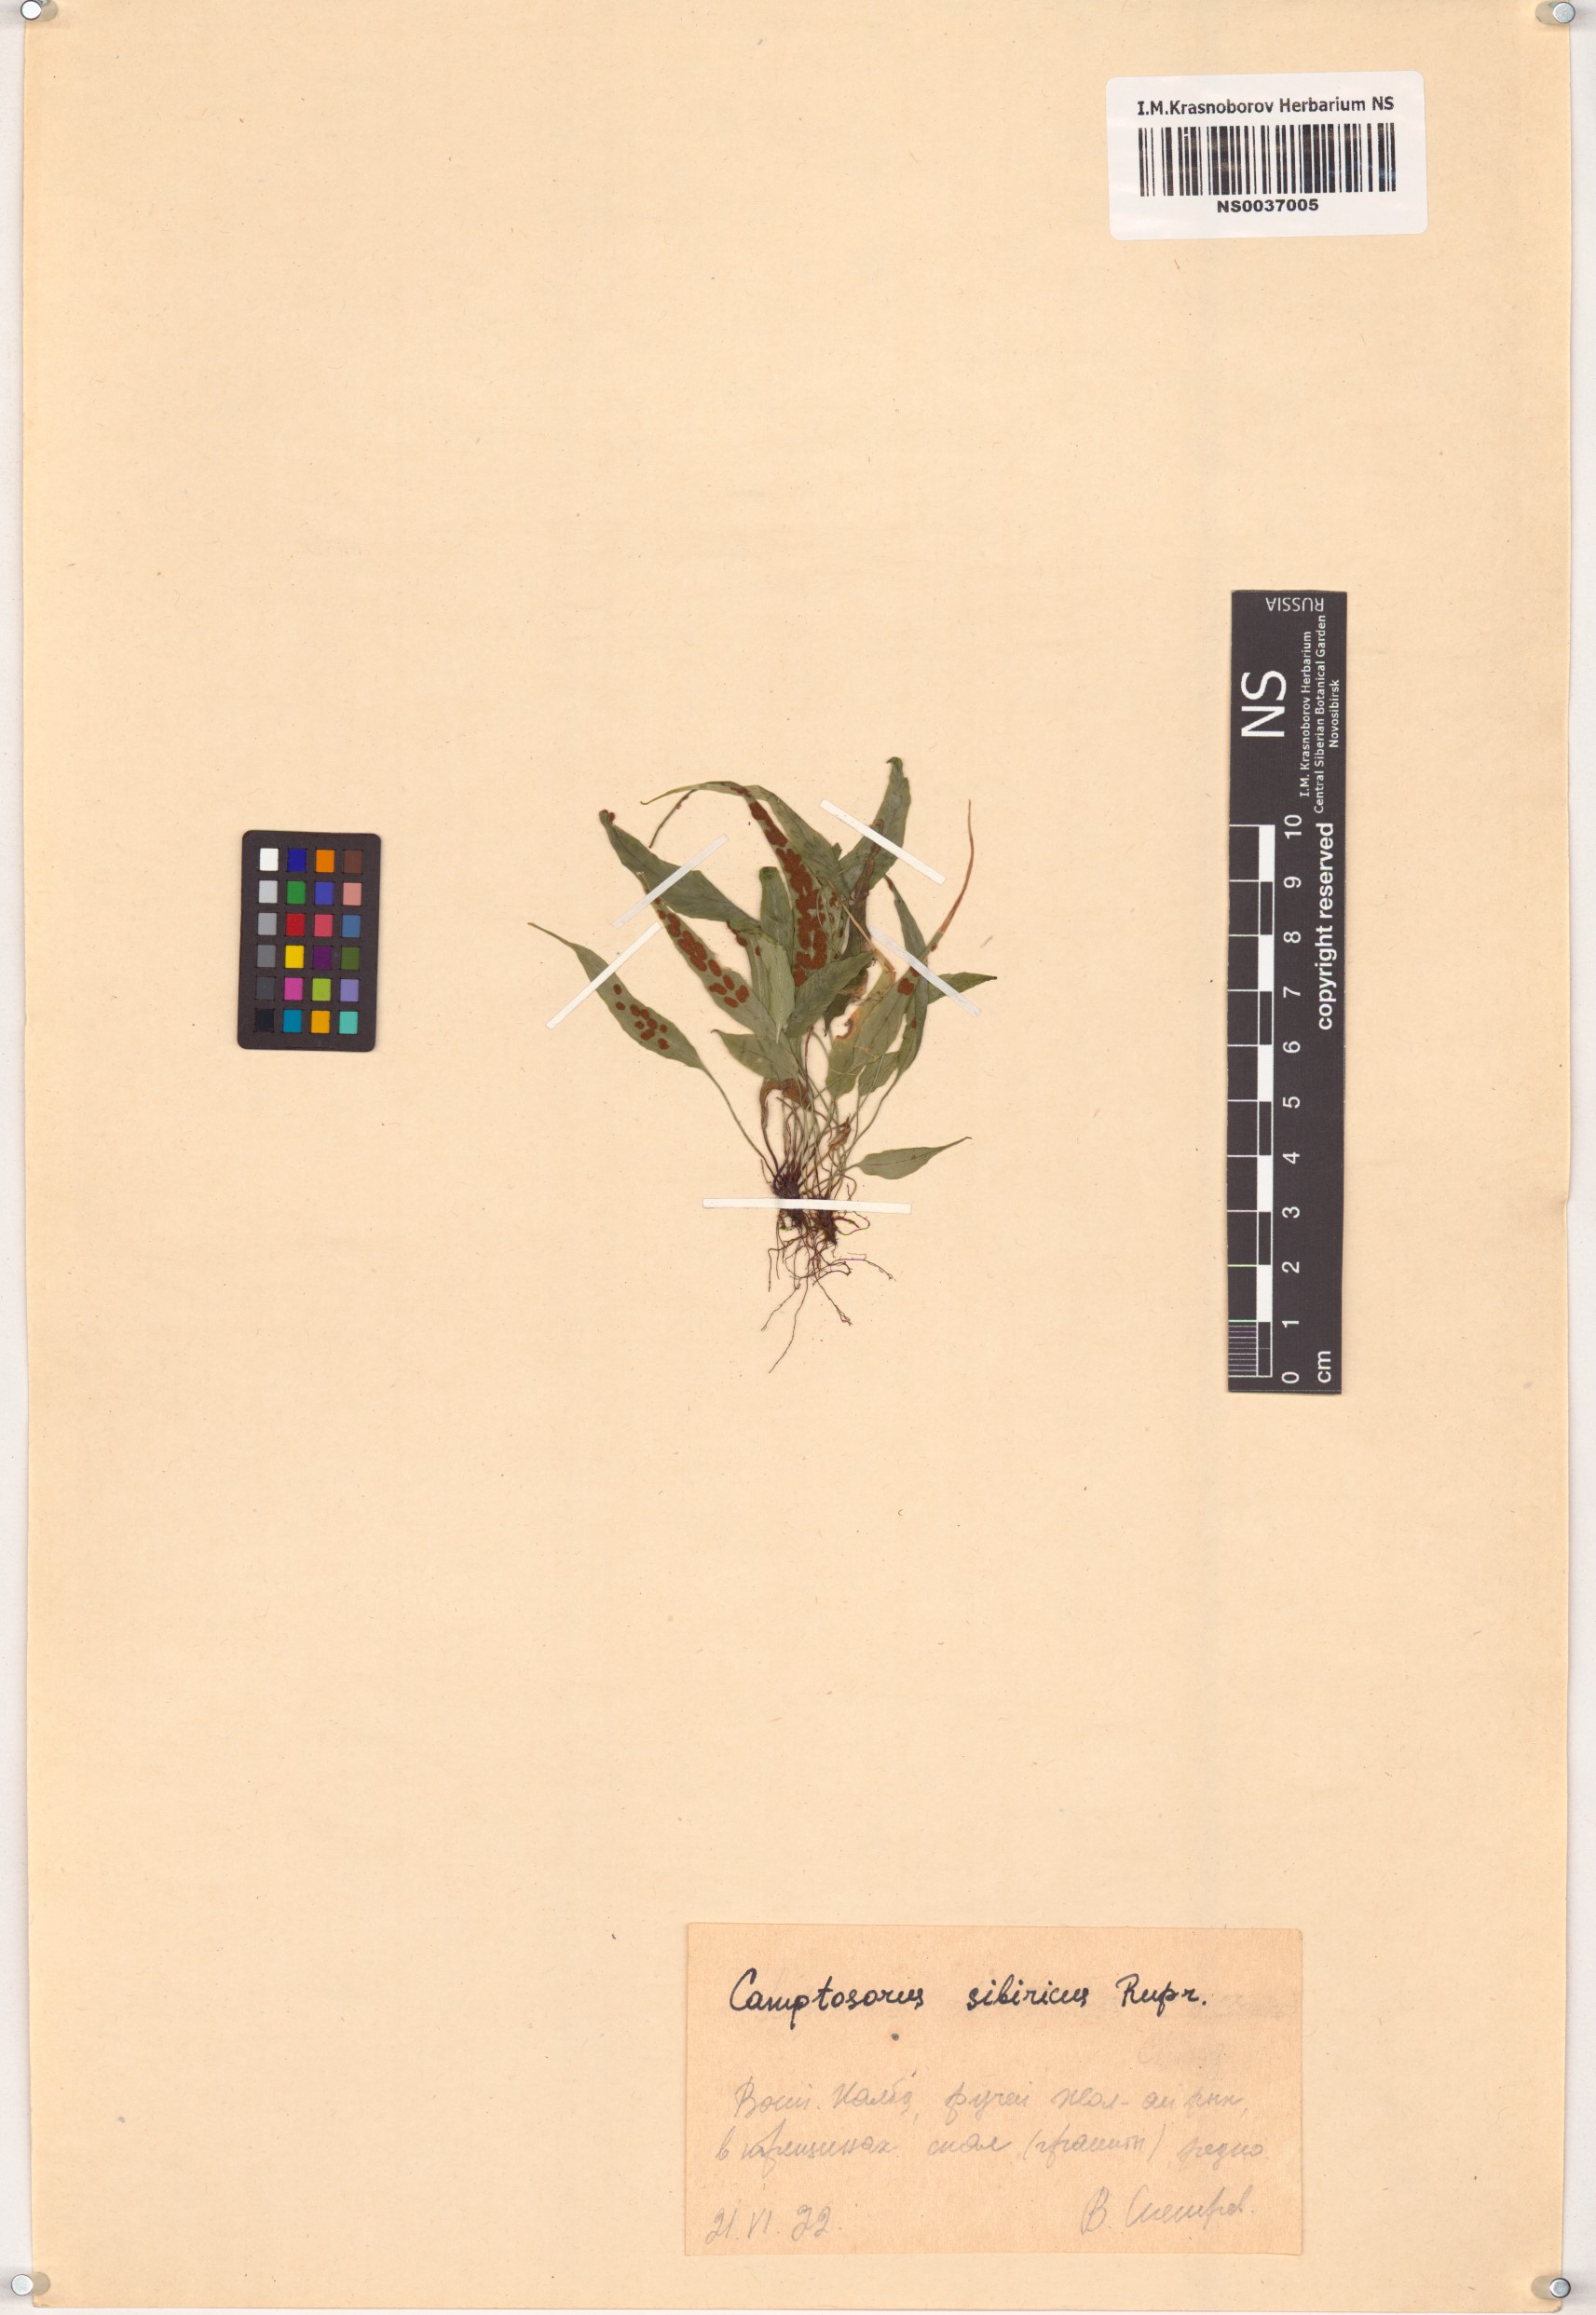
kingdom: Plantae
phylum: Tracheophyta
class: Polypodiopsida
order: Polypodiales
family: Aspleniaceae
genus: Asplenium
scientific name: Asplenium ruprechtii
